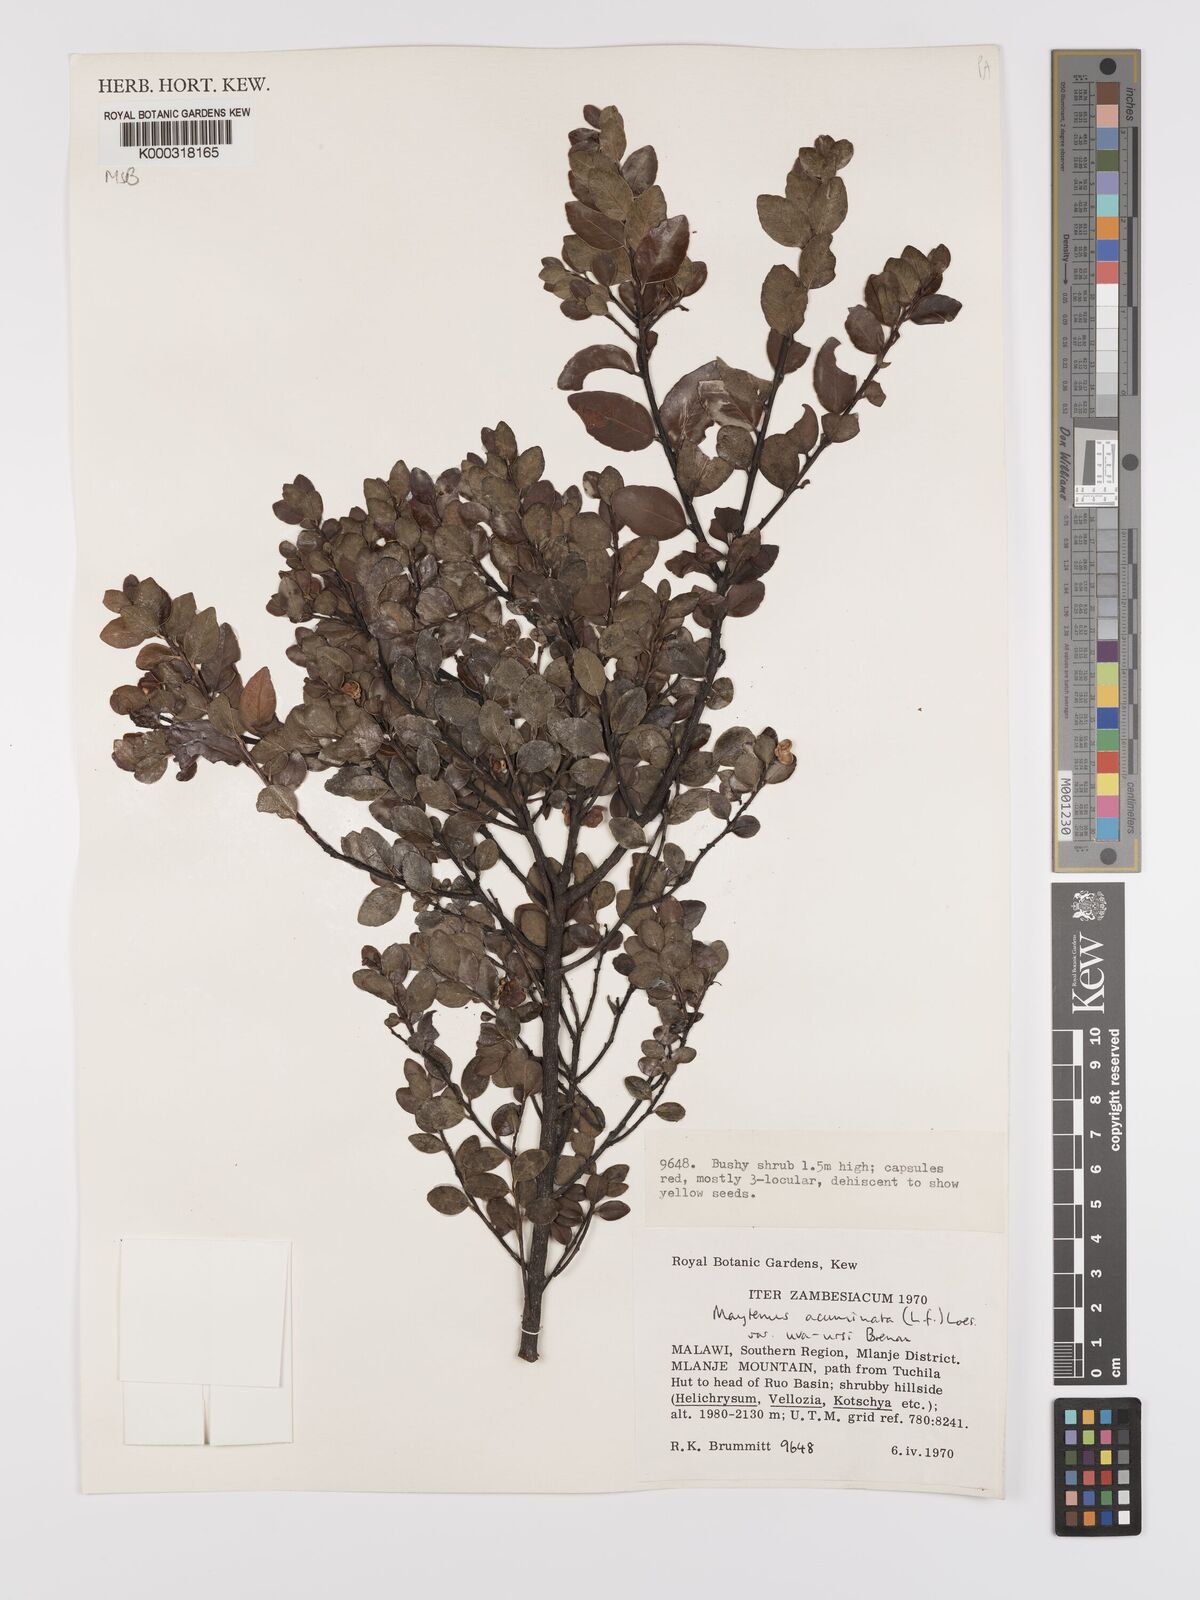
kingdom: Plantae
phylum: Tracheophyta
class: Magnoliopsida
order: Celastrales
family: Celastraceae
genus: Maytenus
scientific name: Maytenus
